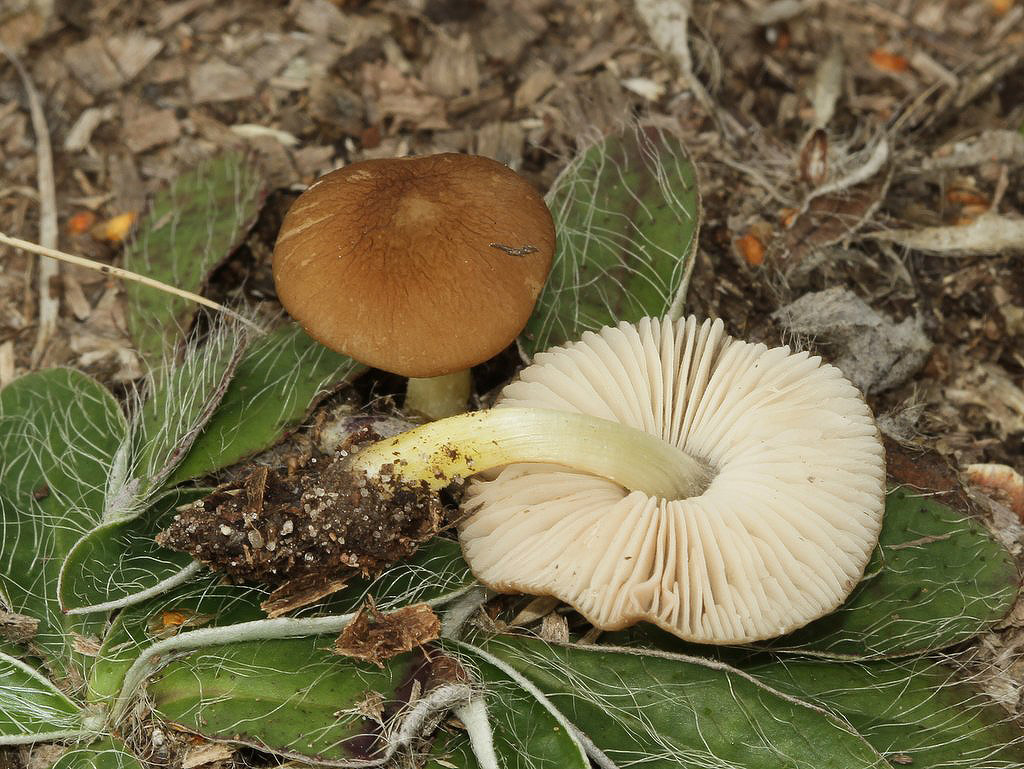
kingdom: Fungi
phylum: Basidiomycota
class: Agaricomycetes
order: Agaricales
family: Pluteaceae
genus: Pluteus
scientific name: Pluteus romellii
